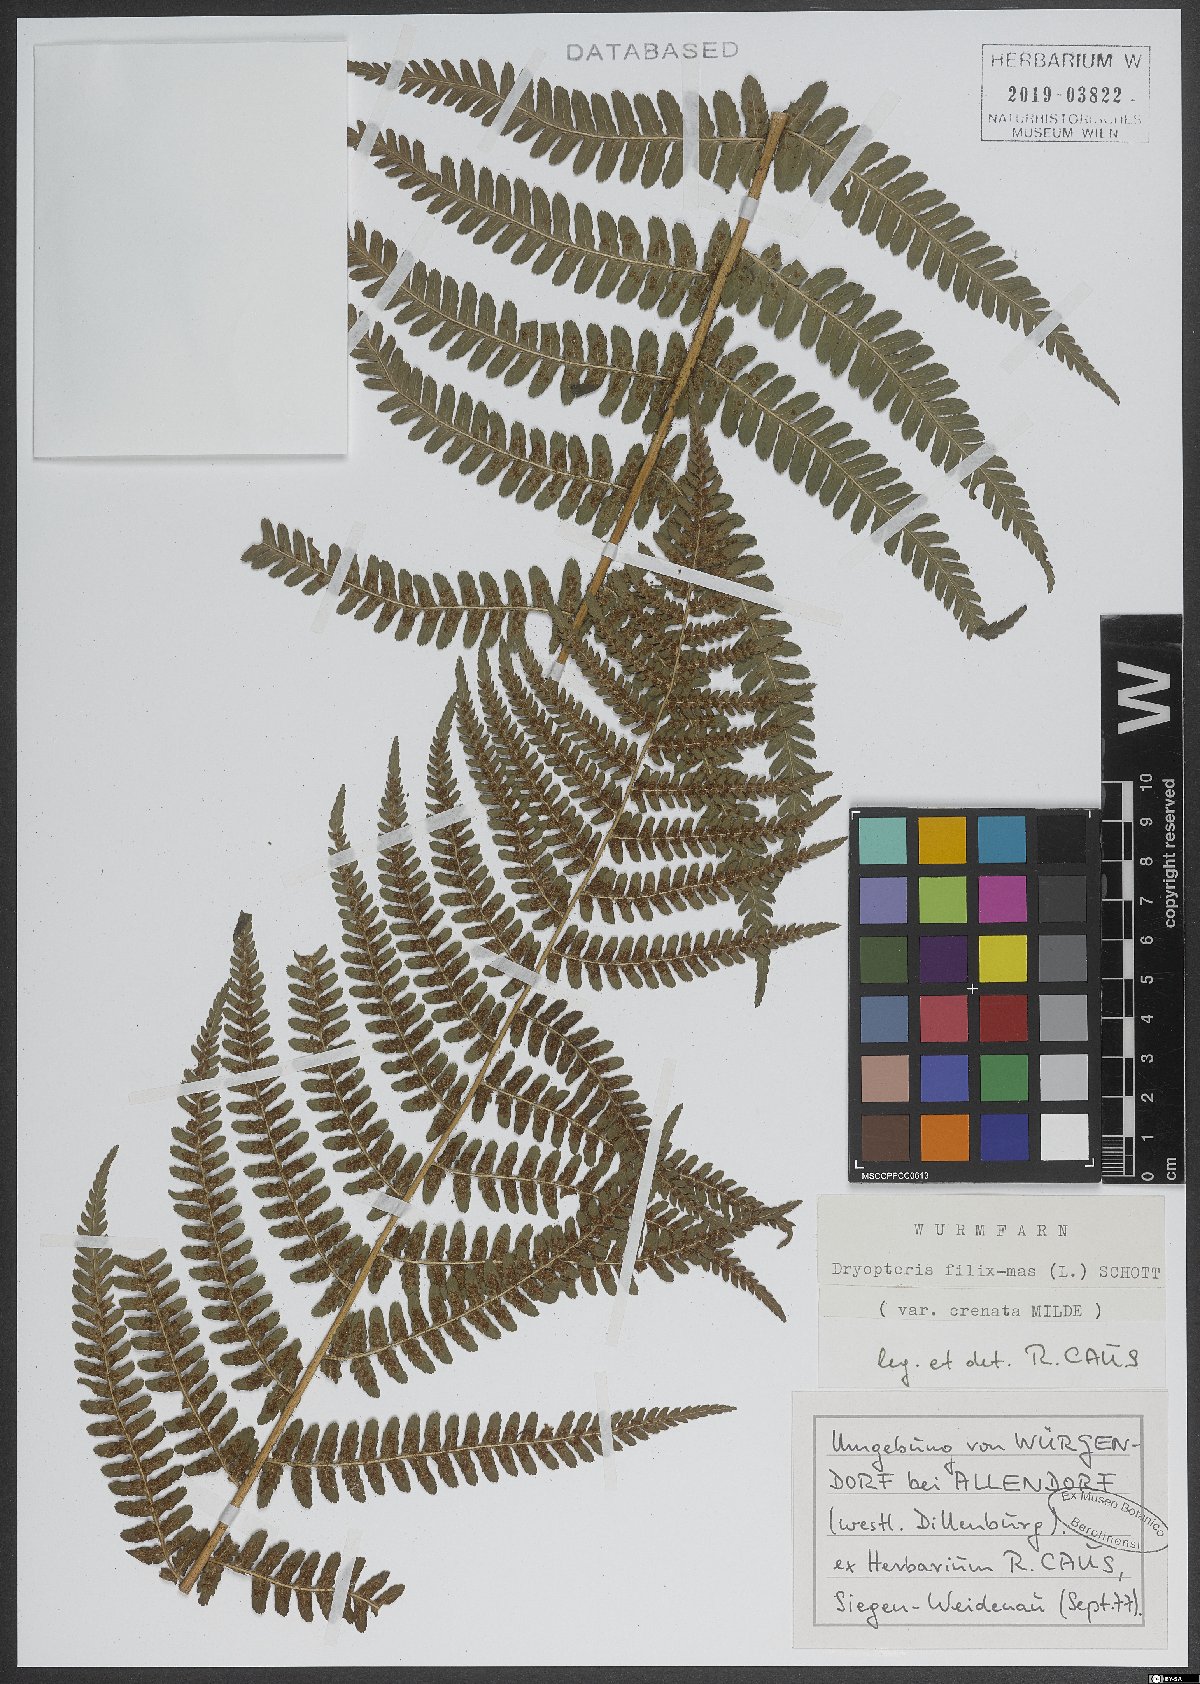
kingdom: Plantae
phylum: Tracheophyta
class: Polypodiopsida
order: Polypodiales
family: Dryopteridaceae
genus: Dryopteris
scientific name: Dryopteris filix-mas
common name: Male fern
